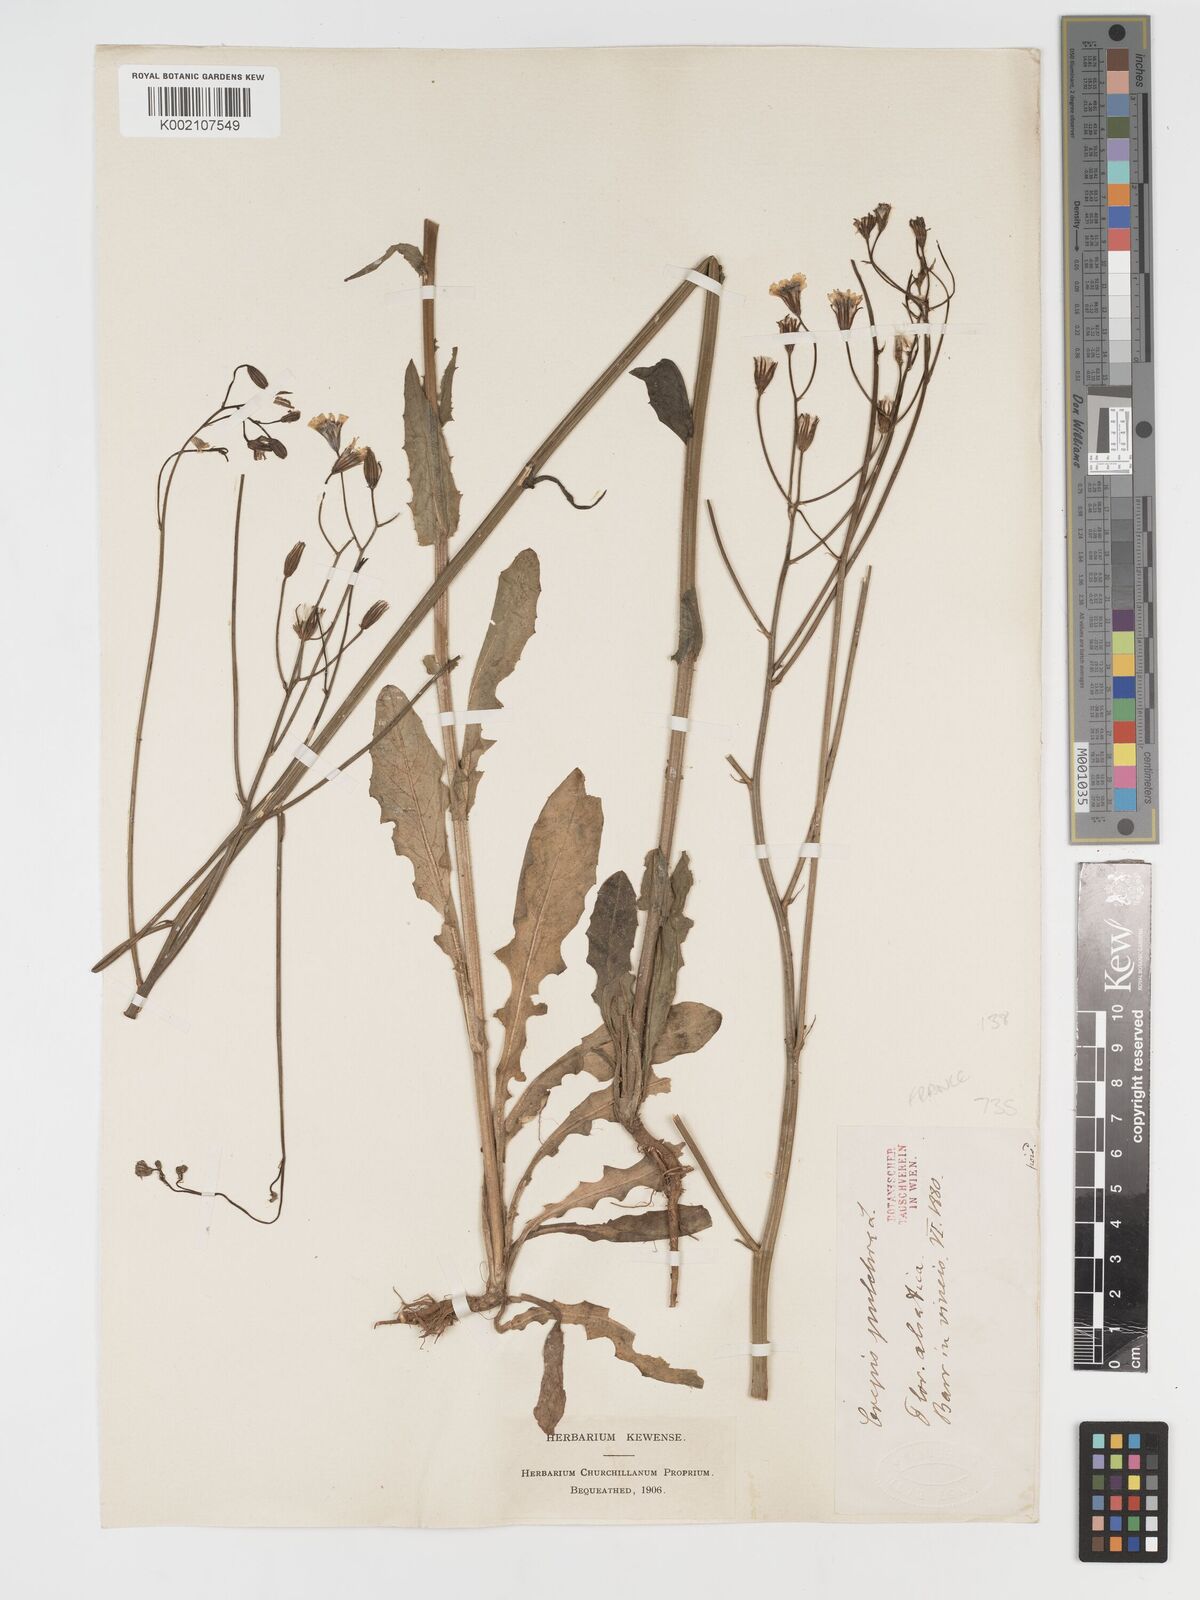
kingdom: Plantae
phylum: Tracheophyta
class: Magnoliopsida
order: Asterales
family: Asteraceae
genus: Crepis
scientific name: Crepis pulchra
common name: Hawk's-beard
